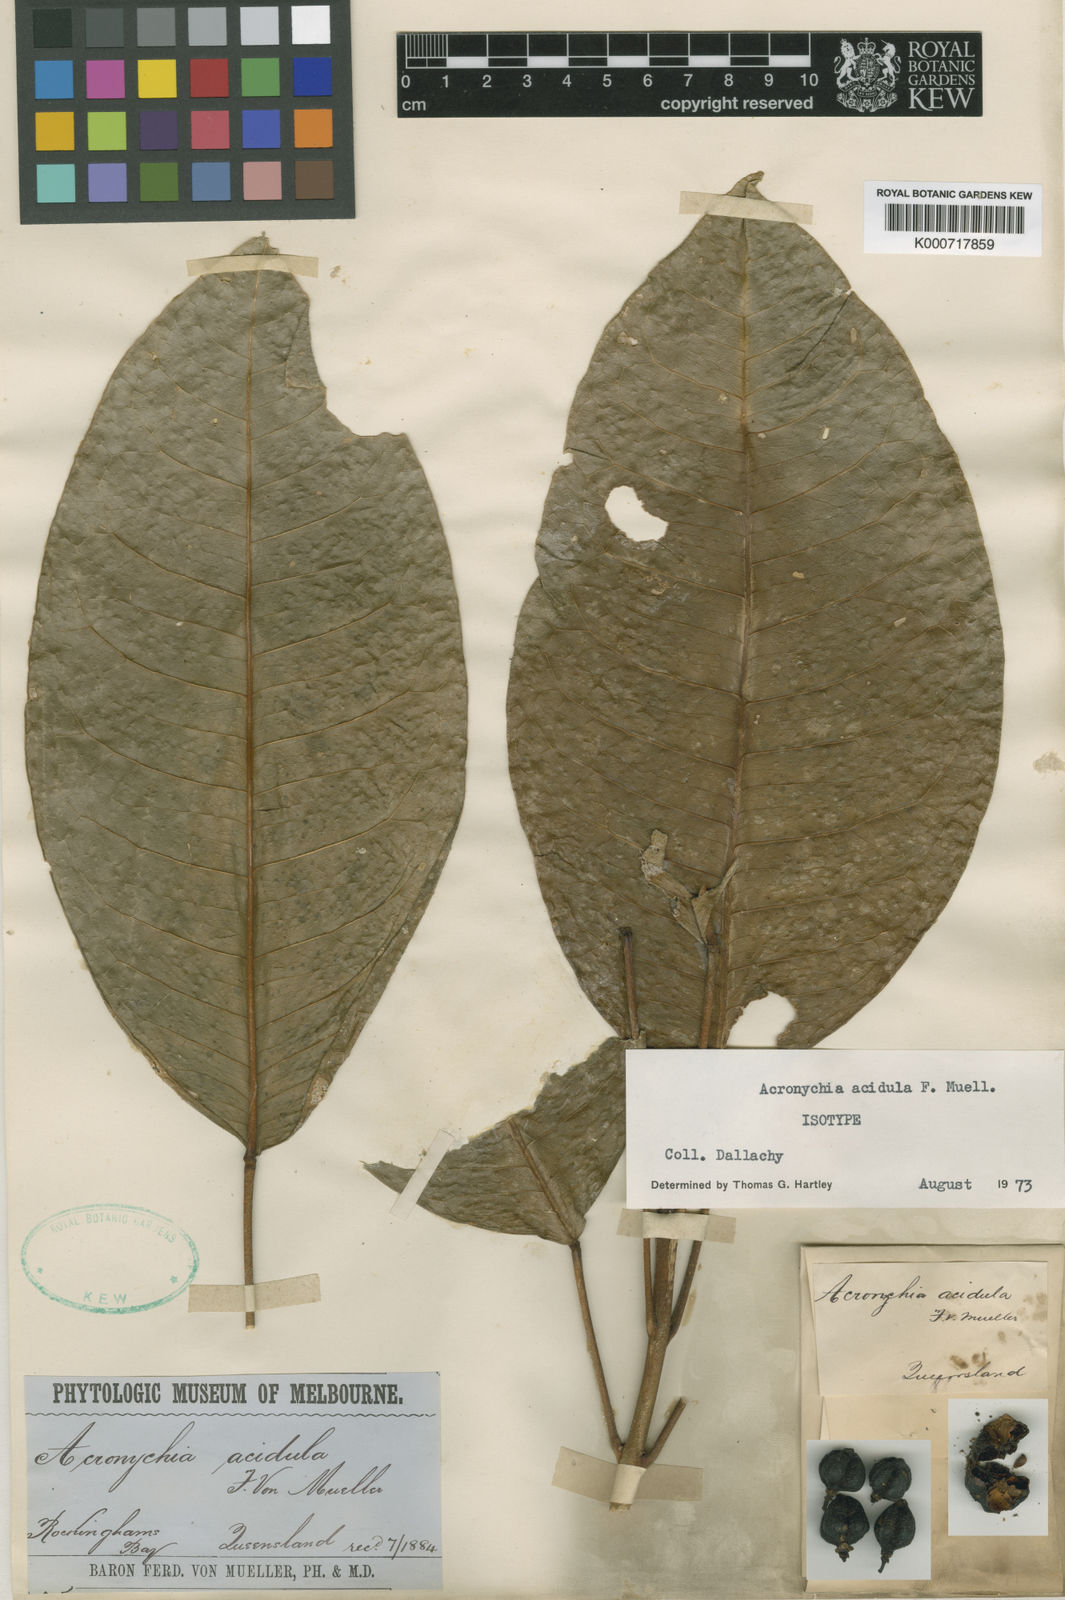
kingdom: Plantae
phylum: Tracheophyta
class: Magnoliopsida
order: Sapindales
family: Rutaceae
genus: Acronychia
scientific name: Acronychia acidula
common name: Lemon-aspen
